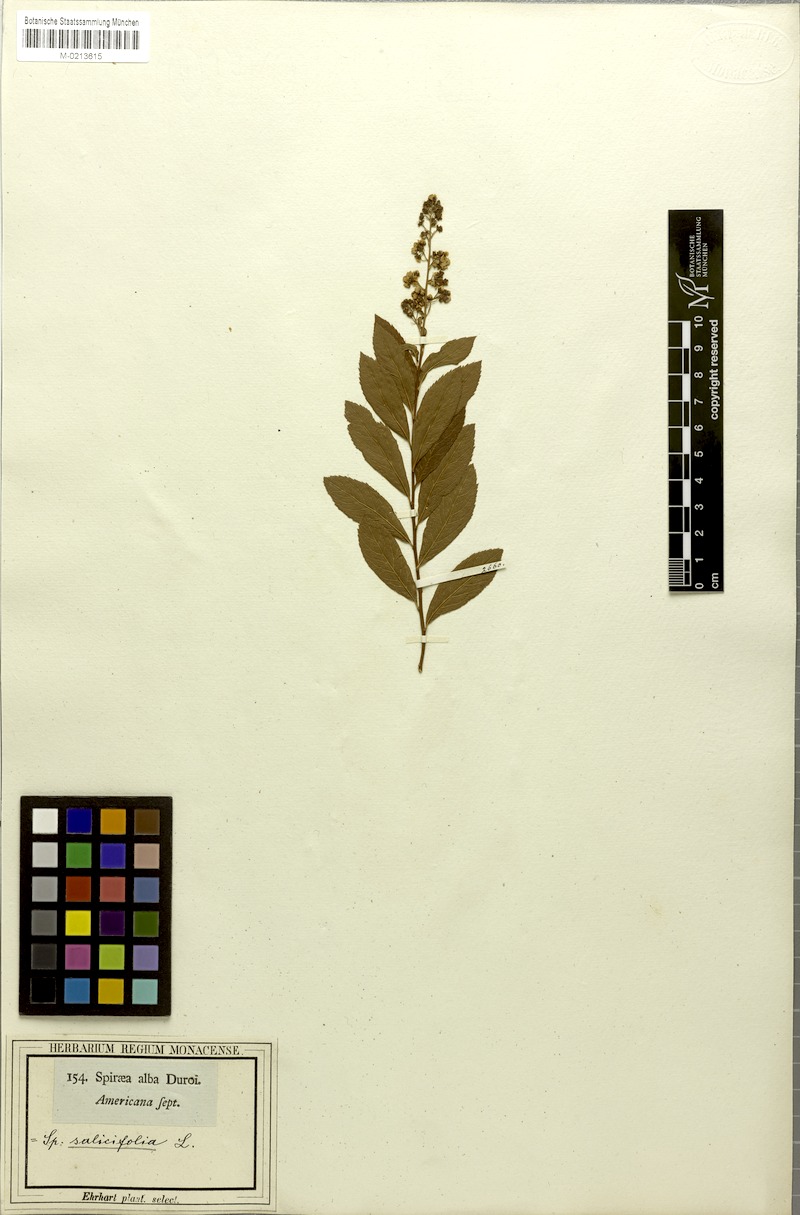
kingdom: Plantae
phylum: Tracheophyta
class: Magnoliopsida
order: Rosales
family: Rosaceae
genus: Spiraea
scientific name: Spiraea alba
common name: Pale bridewort
